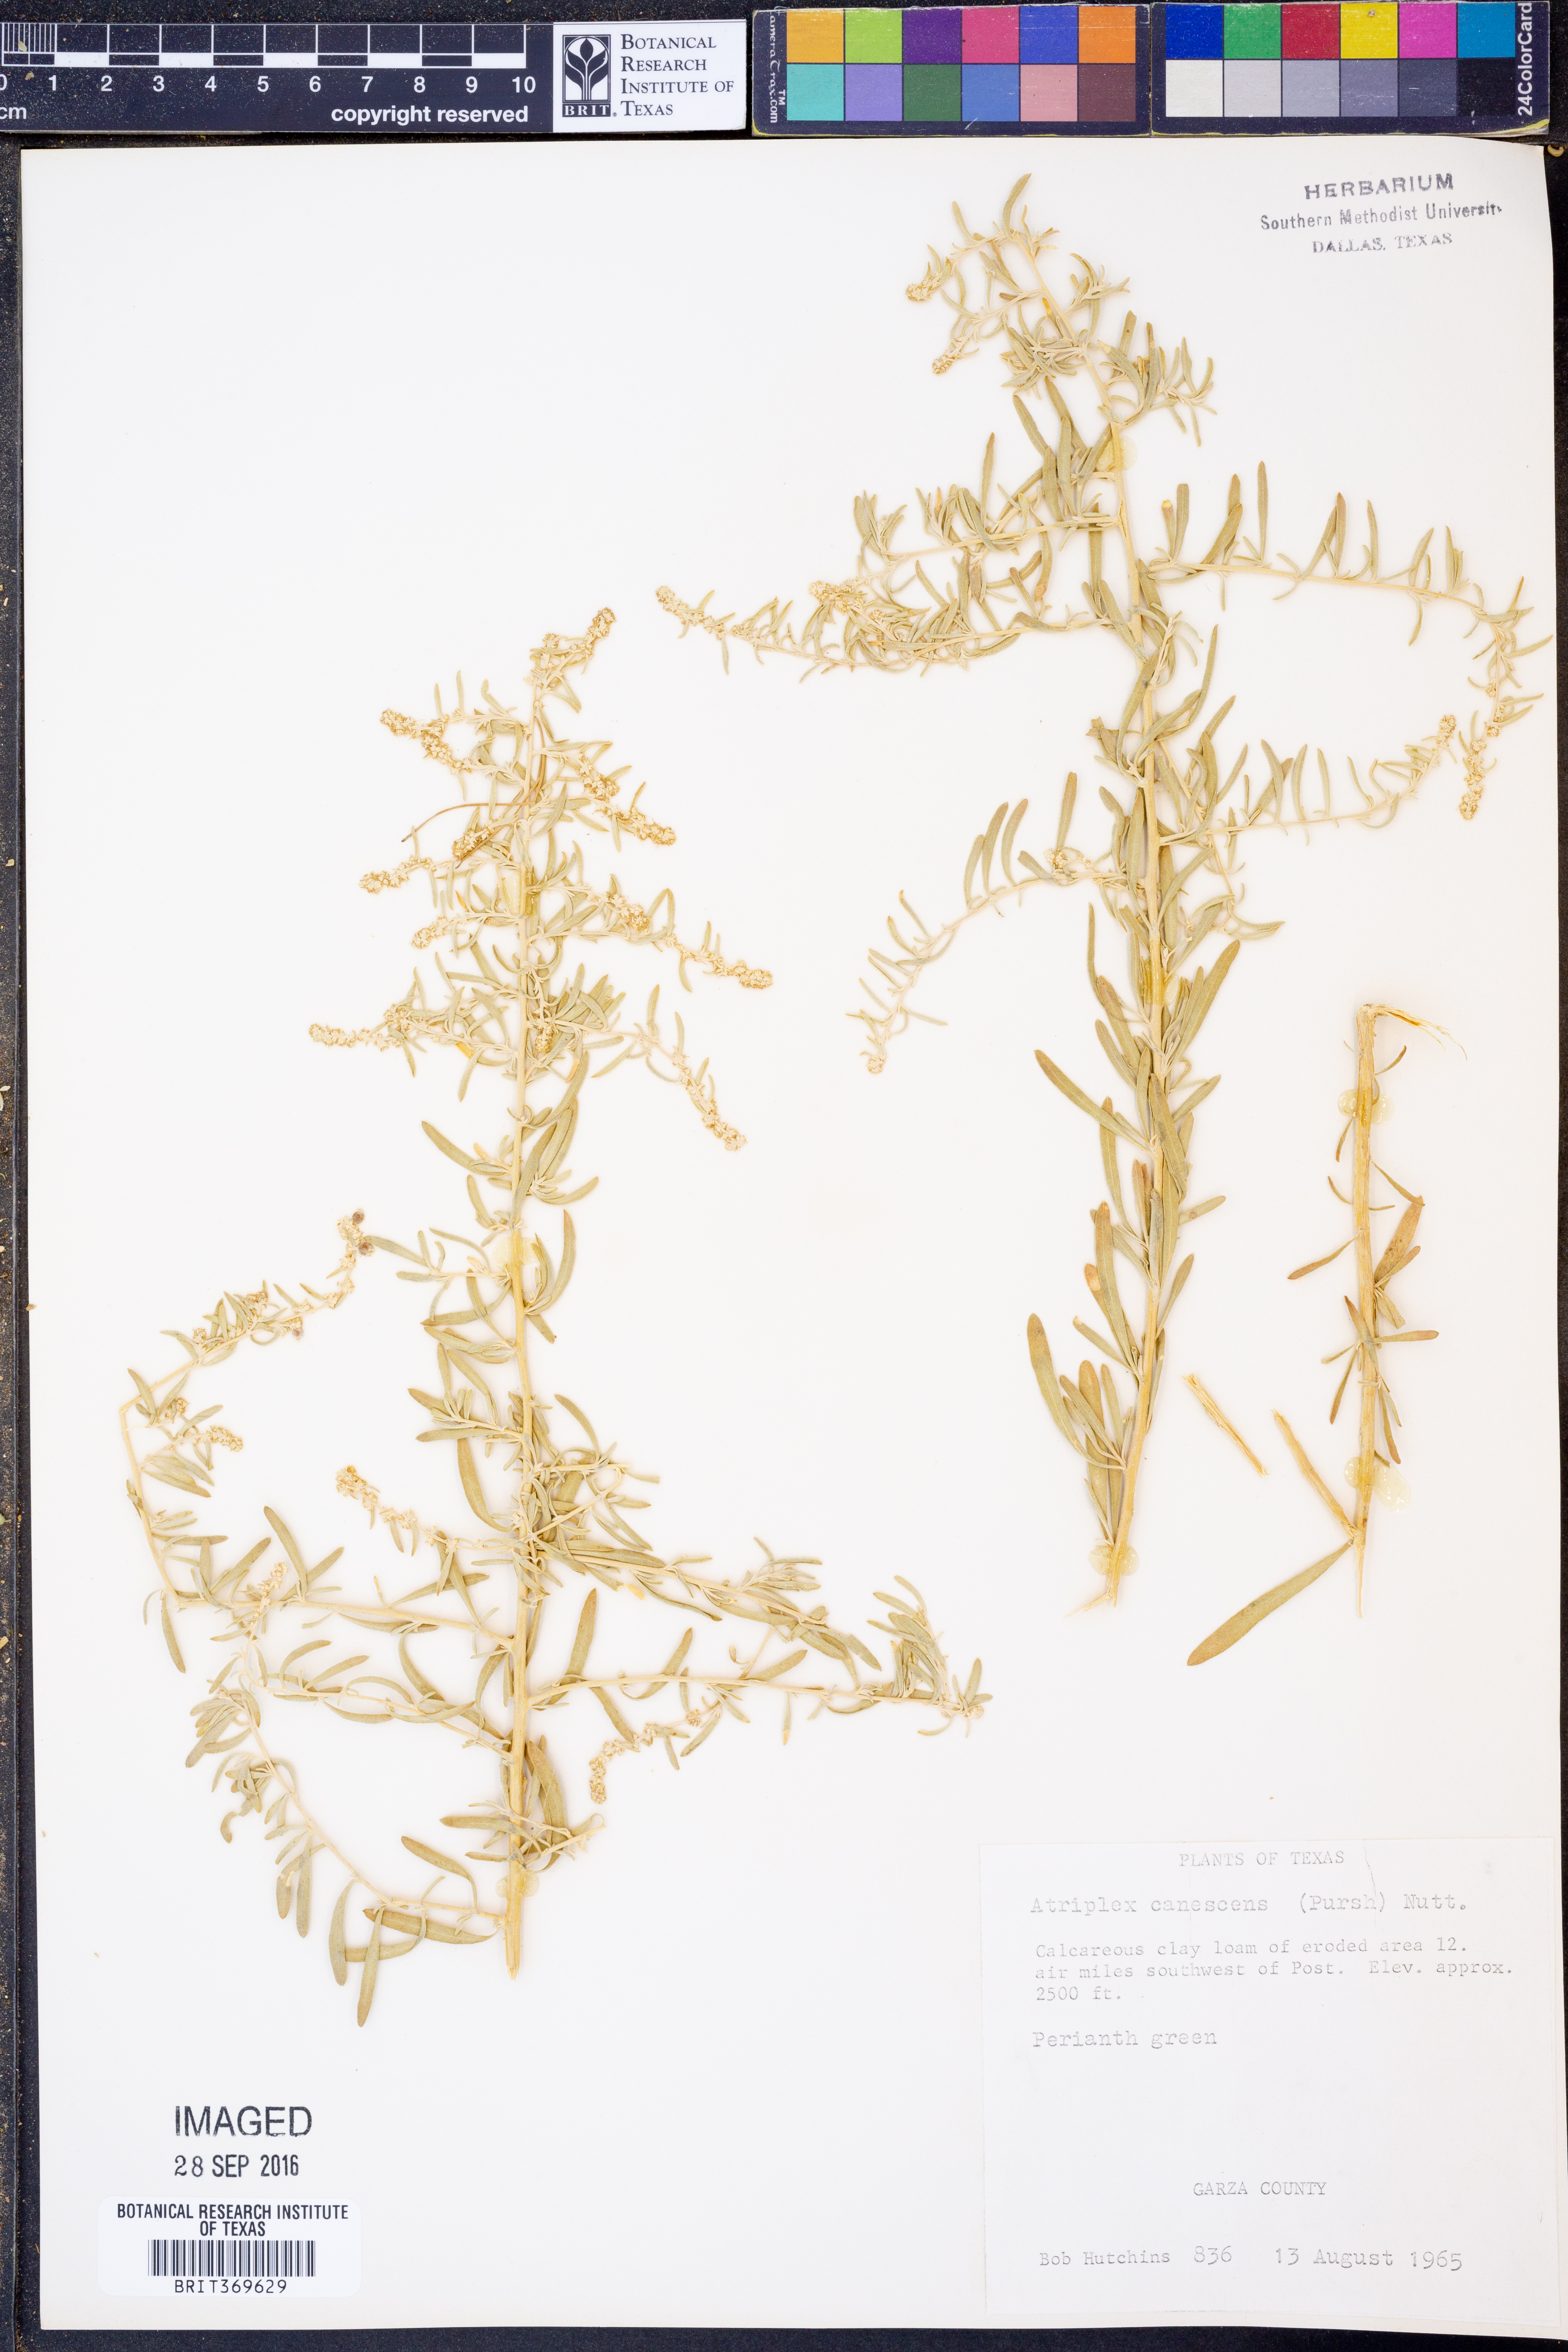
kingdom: Plantae
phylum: Tracheophyta
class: Magnoliopsida
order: Caryophyllales
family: Amaranthaceae
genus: Atriplex
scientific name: Atriplex canescens
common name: Four-wing saltbush
